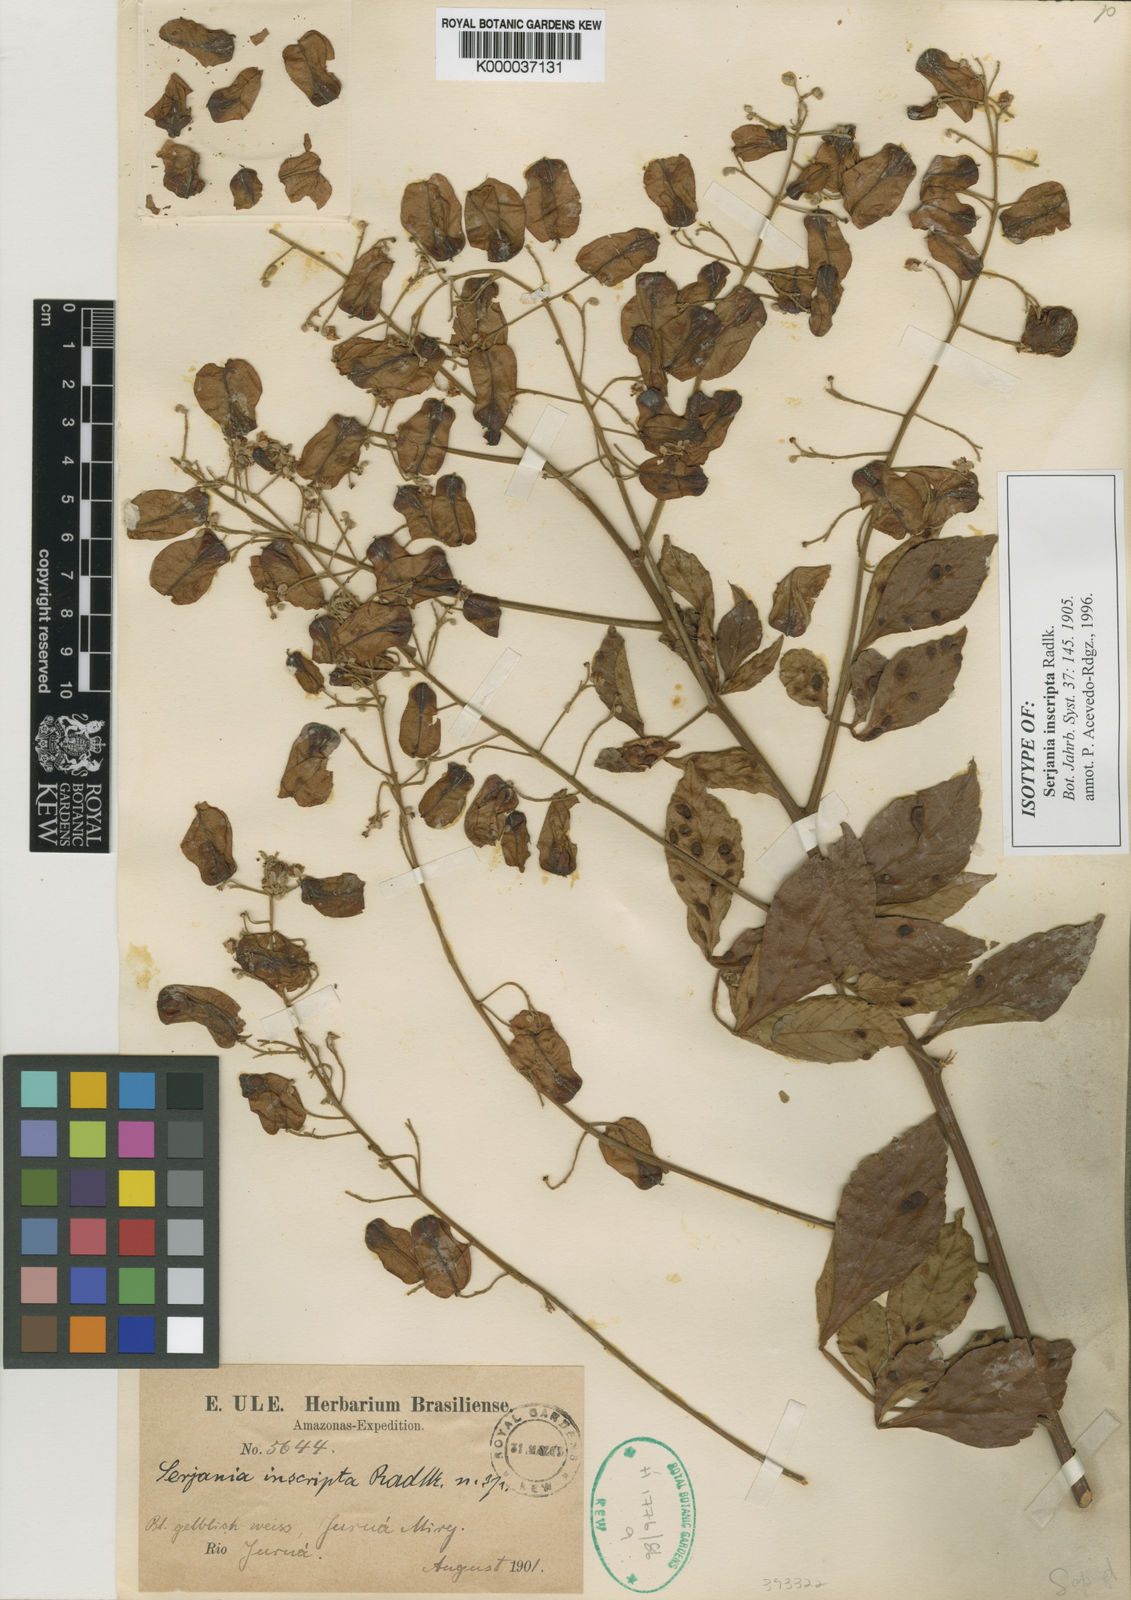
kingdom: Plantae
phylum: Tracheophyta
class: Magnoliopsida
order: Sapindales
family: Sapindaceae
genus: Serjania
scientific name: Serjania inscripta
